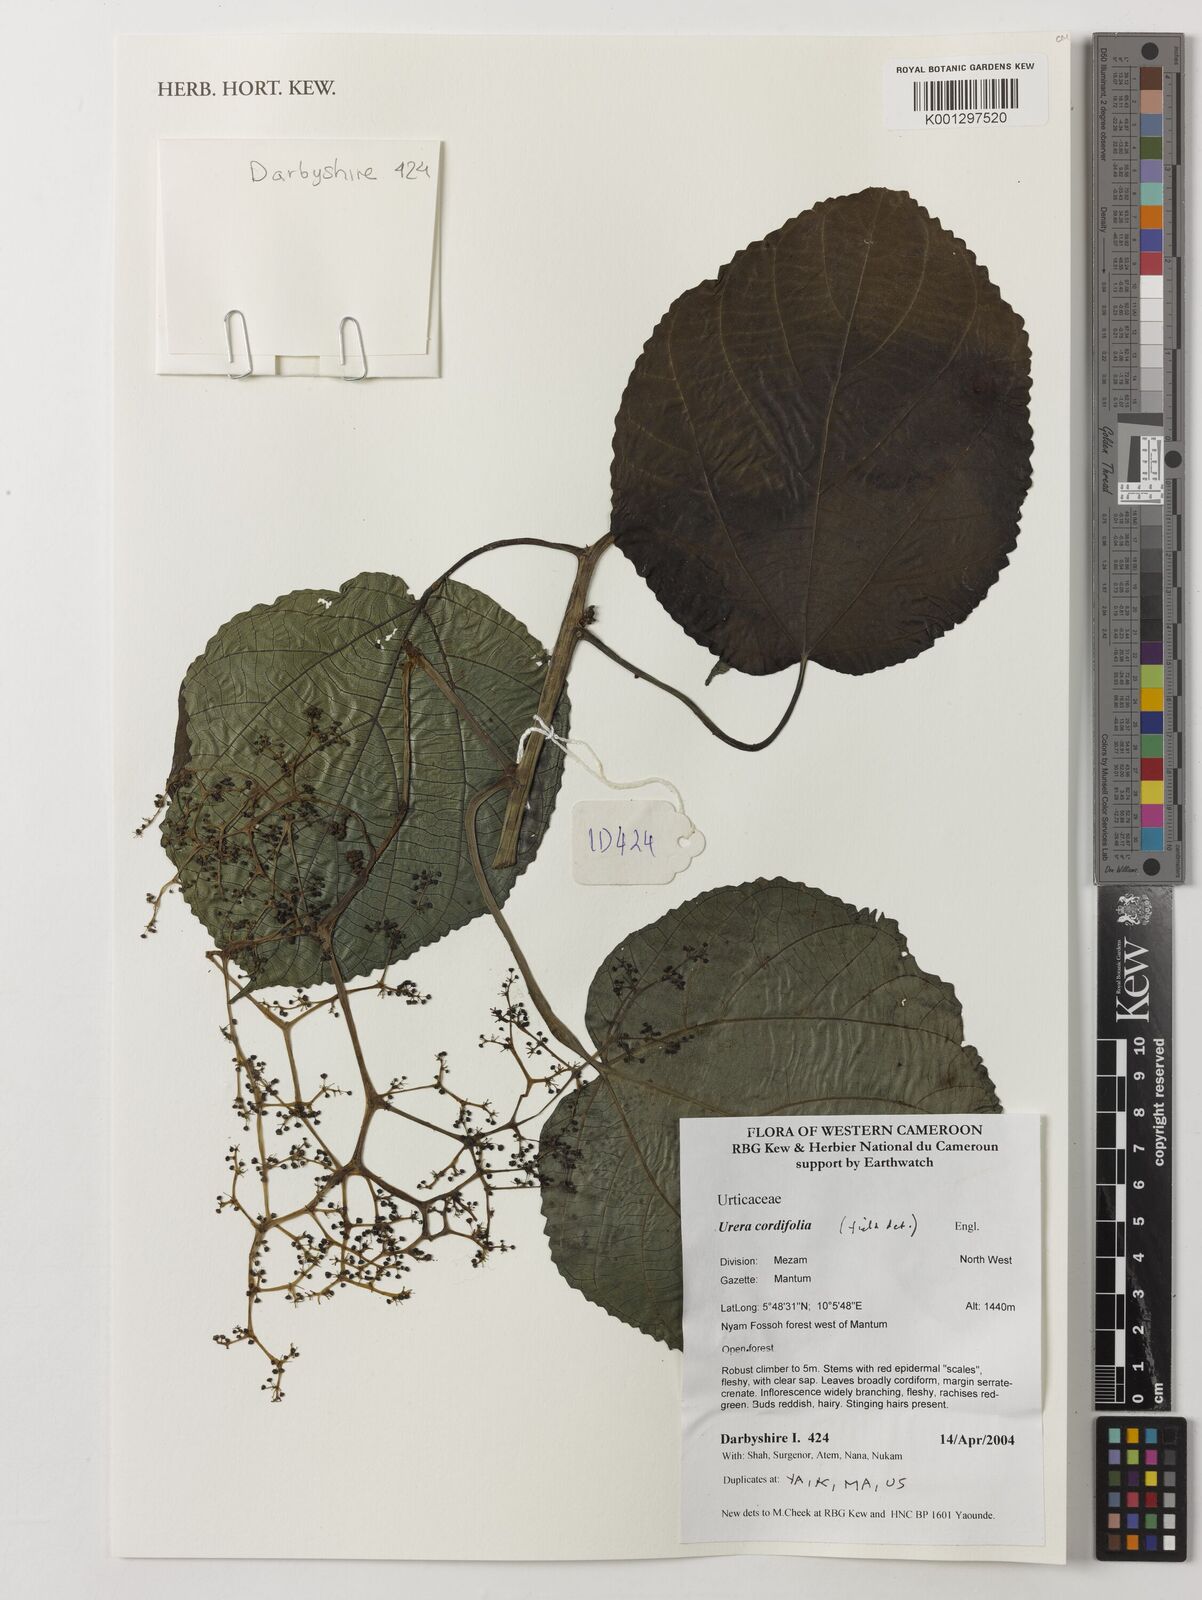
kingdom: Plantae
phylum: Tracheophyta
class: Magnoliopsida
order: Rosales
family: Urticaceae
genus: Scepocarpus
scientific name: Scepocarpus cordifolius
